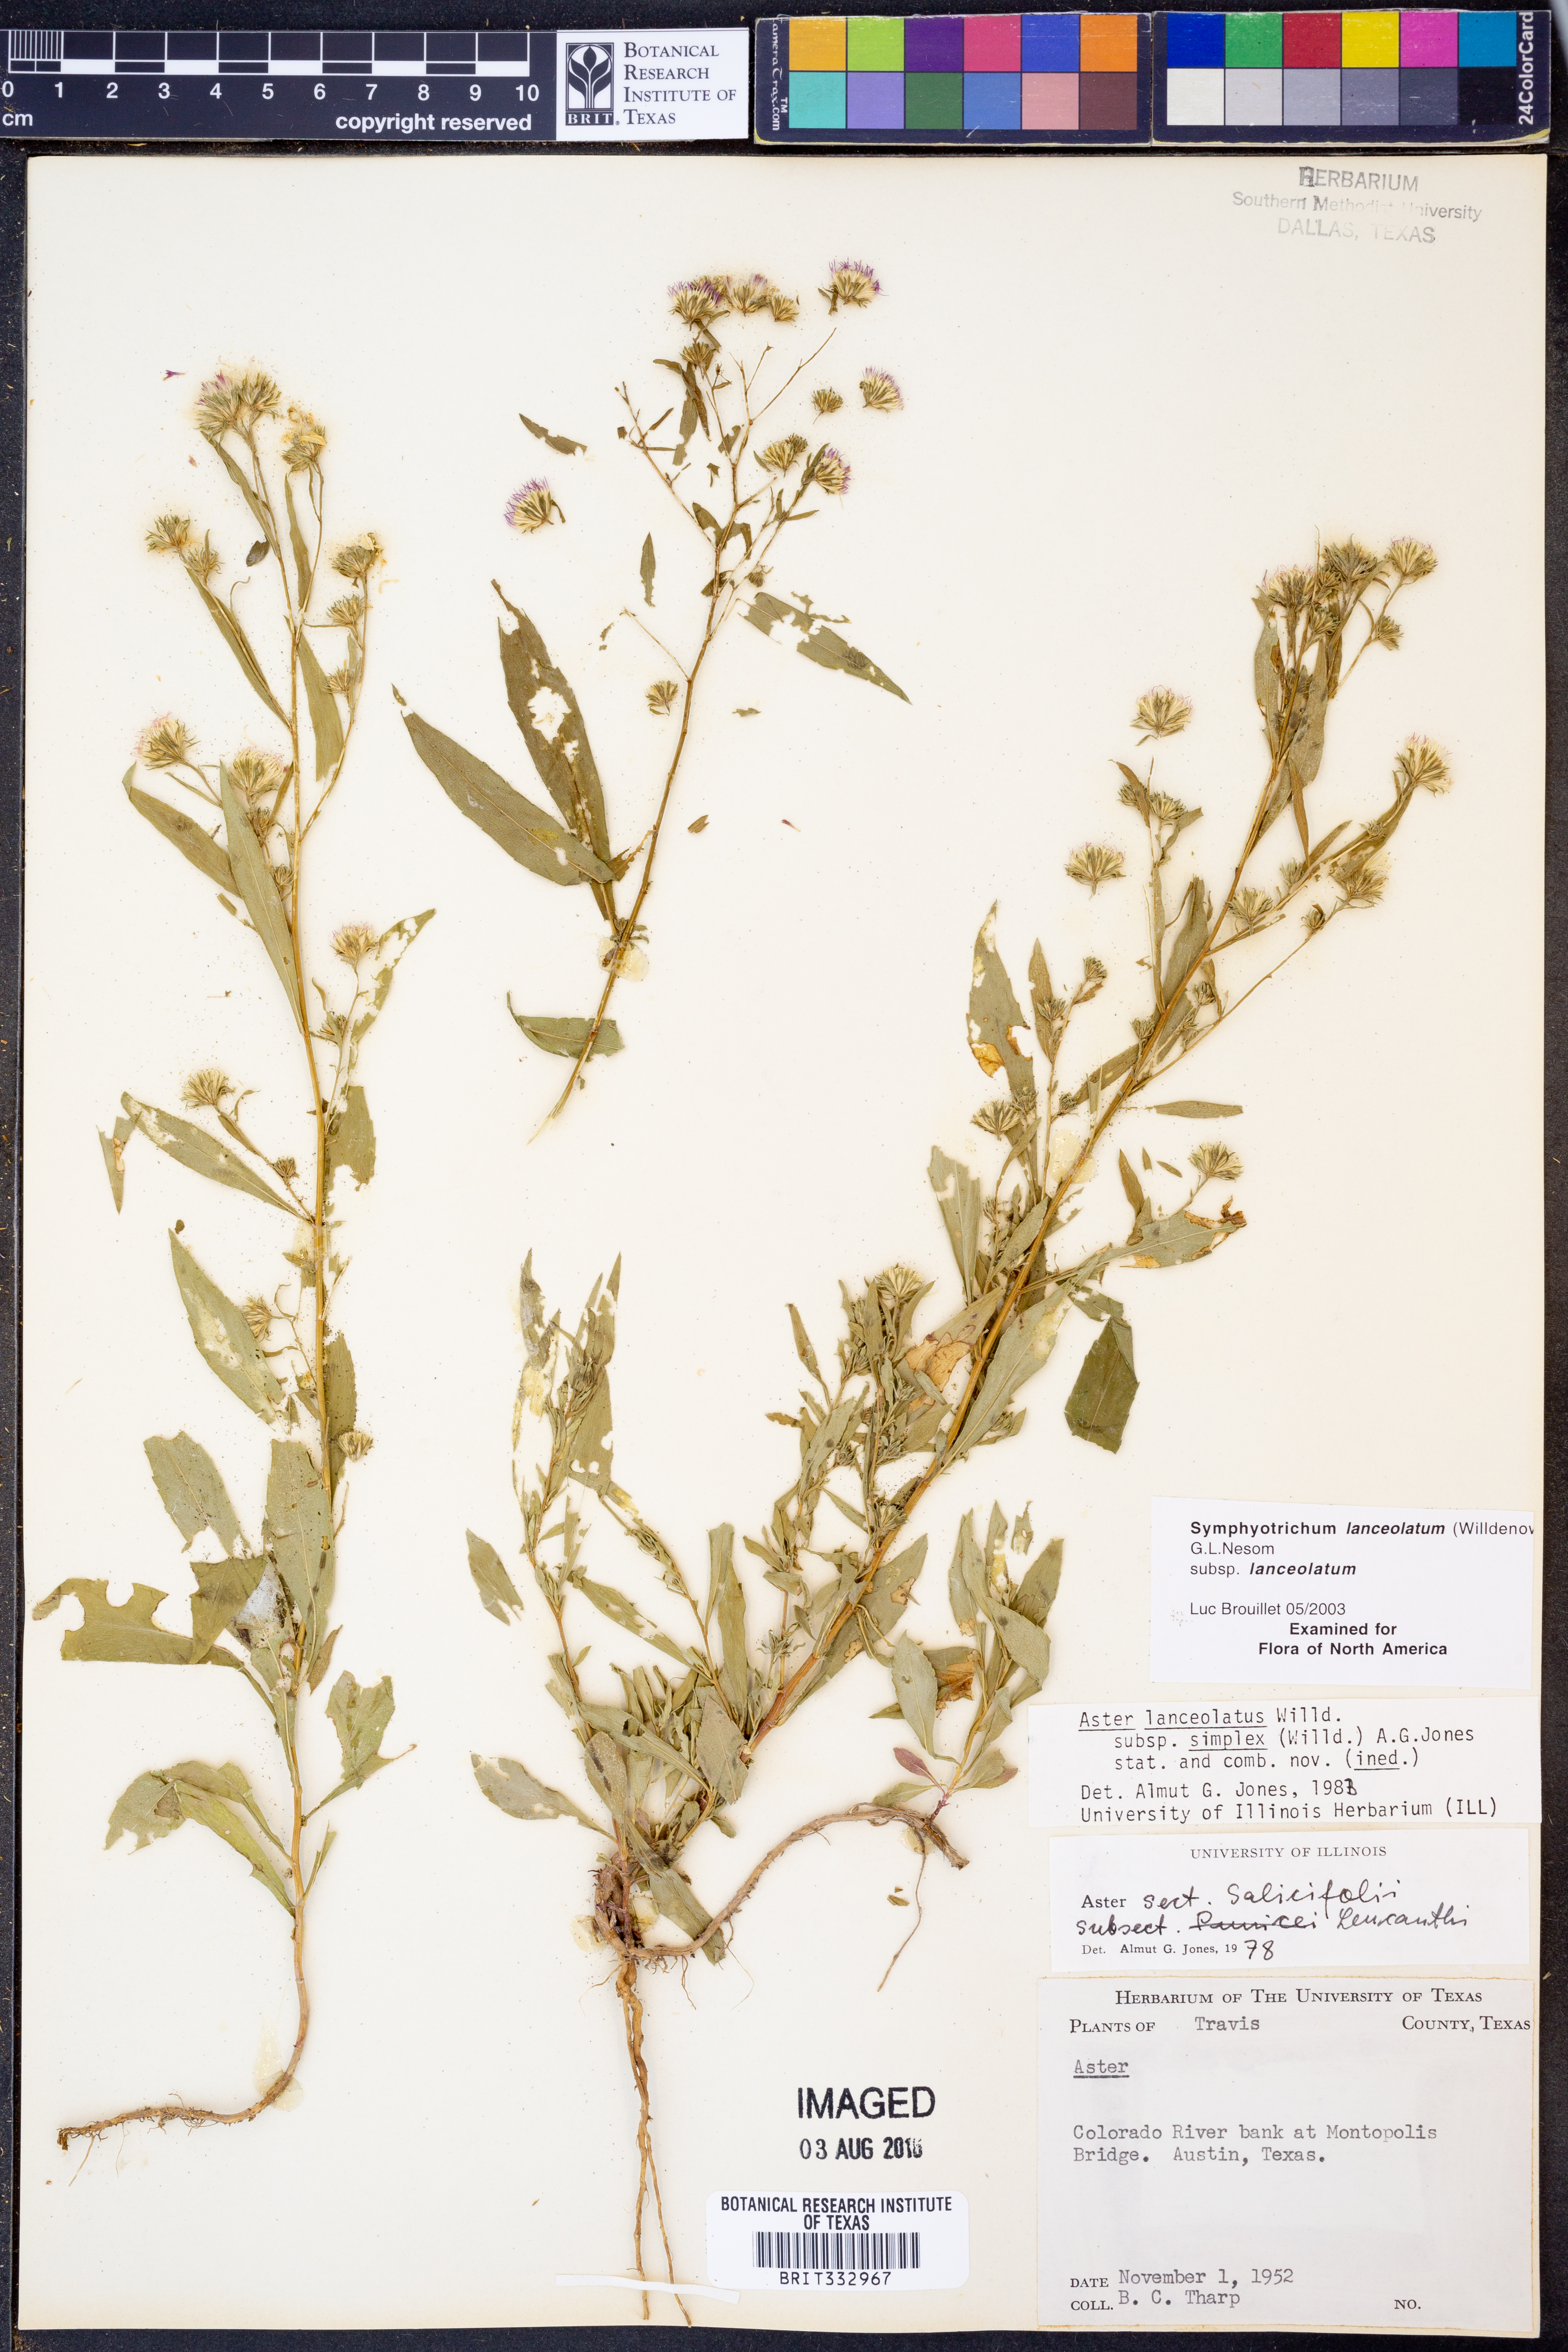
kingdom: Plantae
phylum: Tracheophyta
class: Magnoliopsida
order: Asterales
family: Asteraceae
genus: Symphyotrichum
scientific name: Symphyotrichum lanceolatum
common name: Panicled aster
